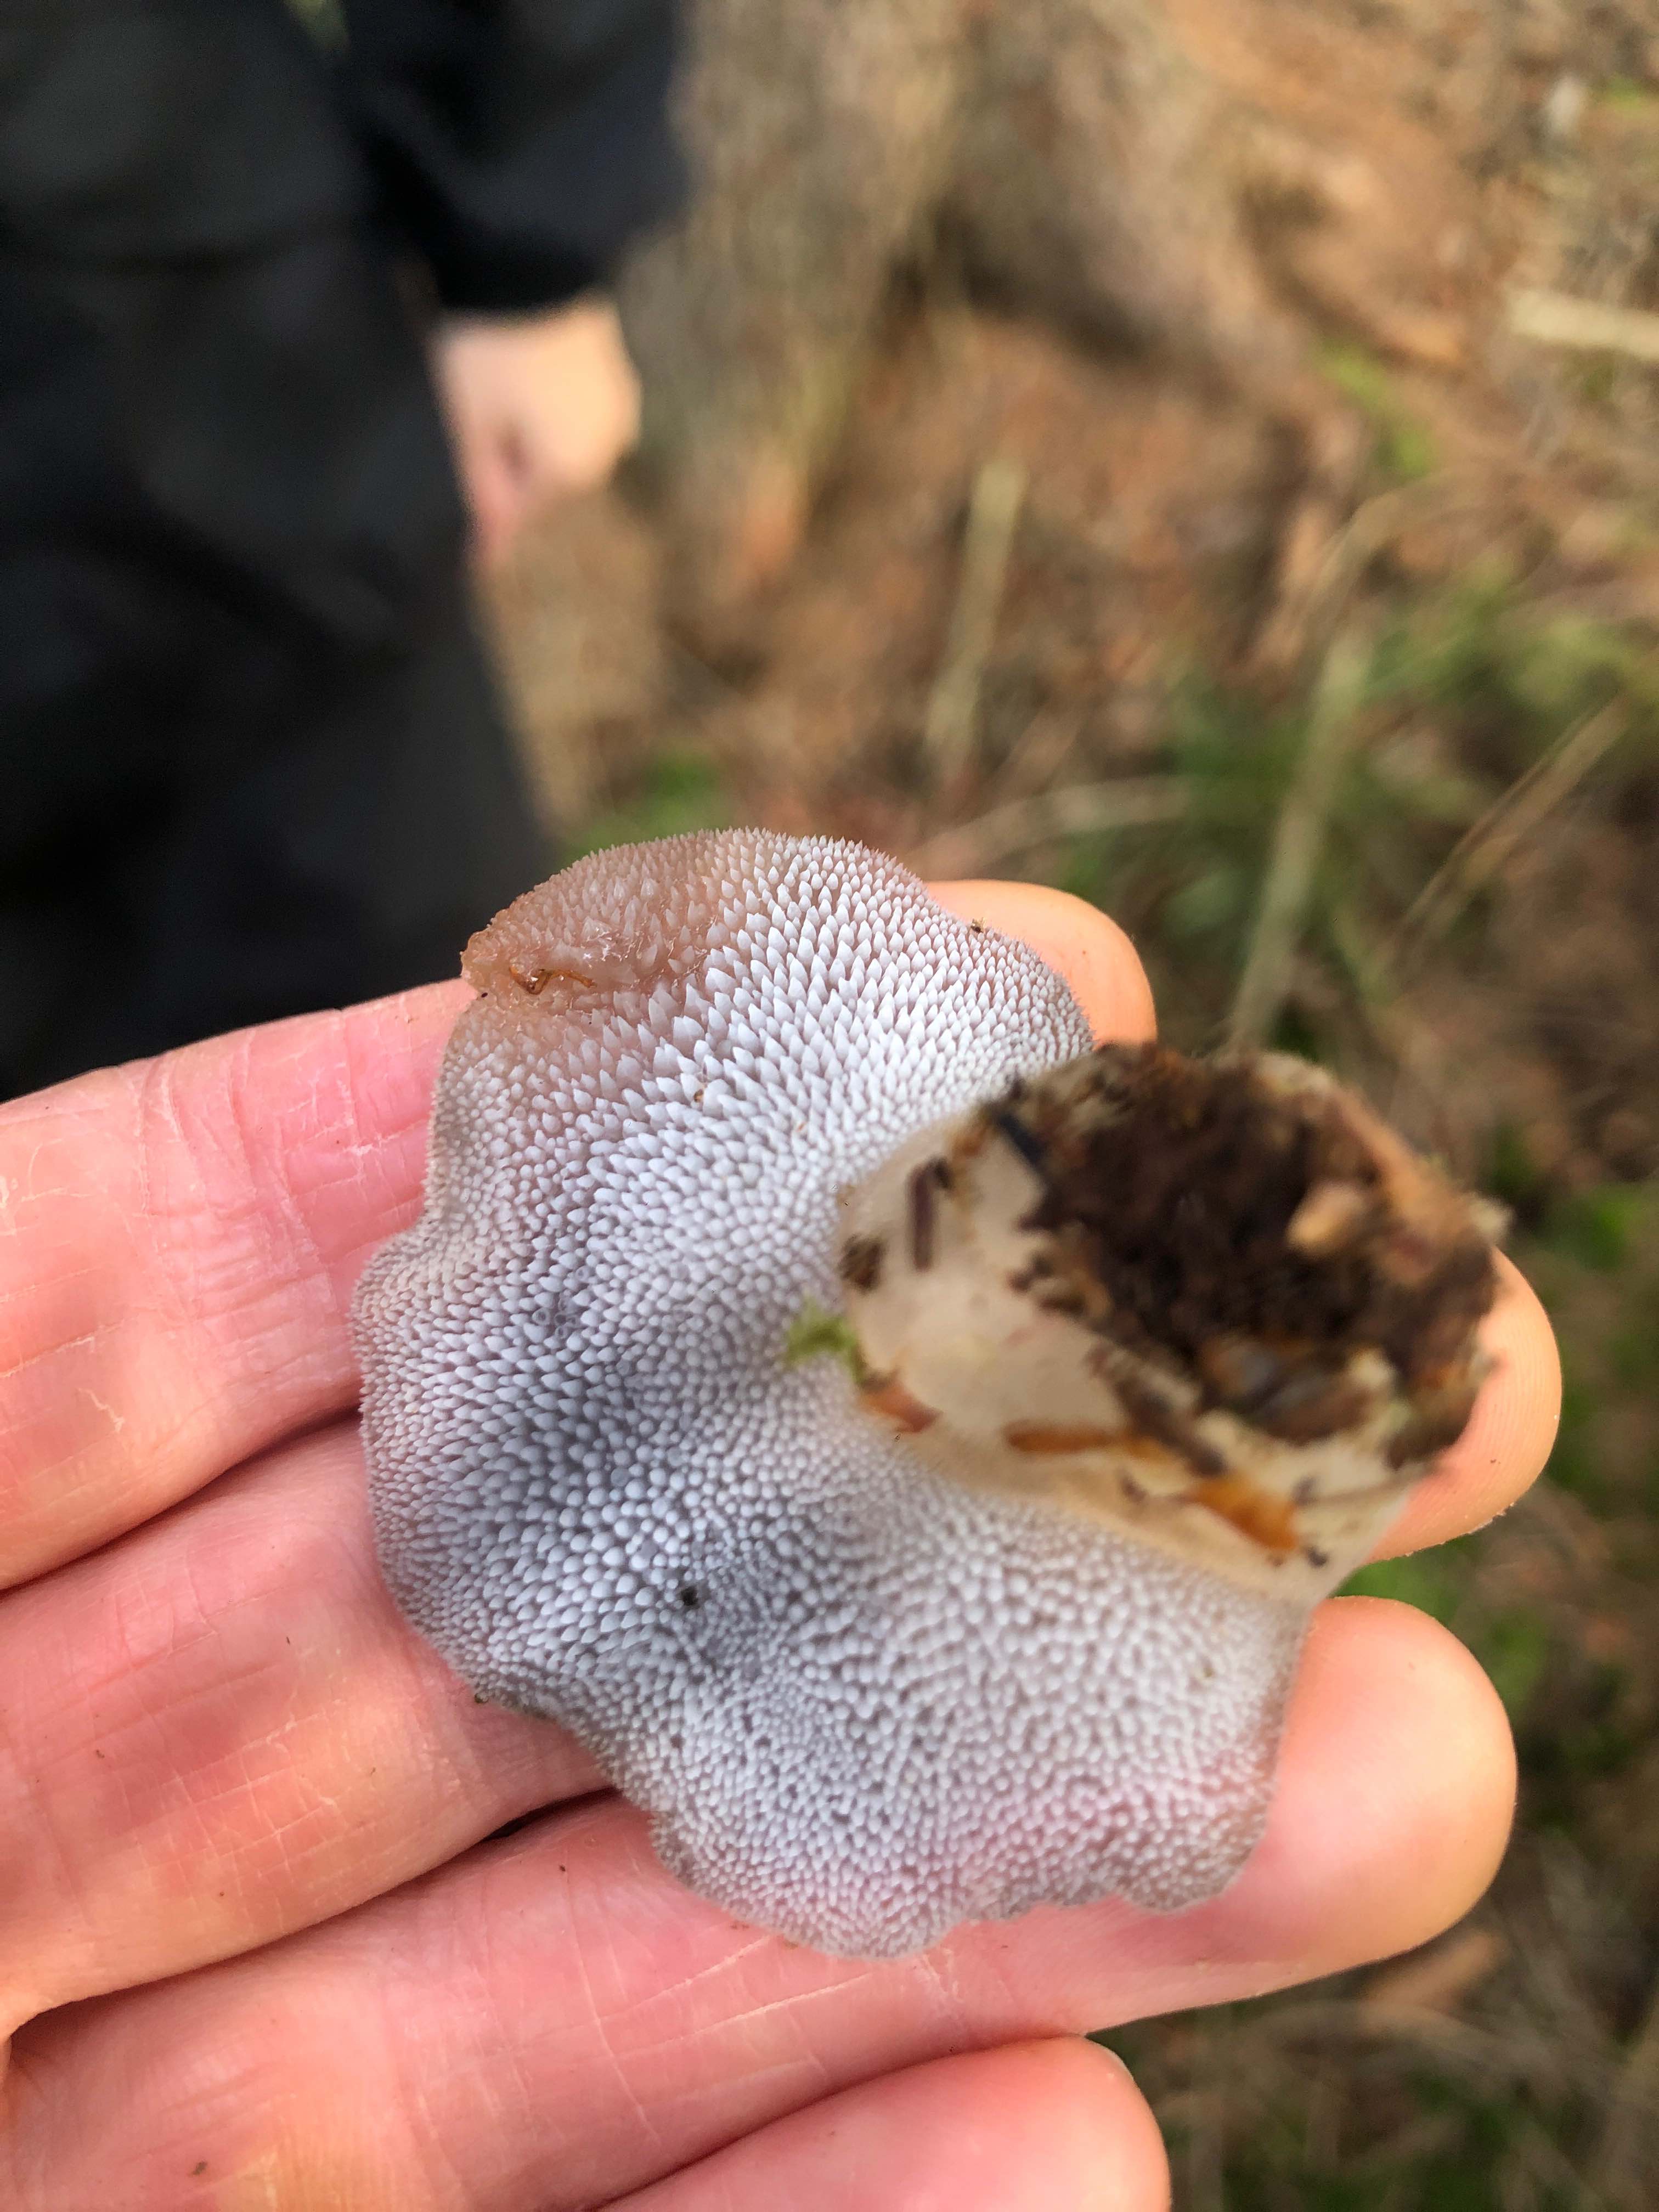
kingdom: Fungi
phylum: Basidiomycota
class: Agaricomycetes
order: Auriculariales
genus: Pseudohydnum
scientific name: Pseudohydnum gelatinosum
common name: bævretand
